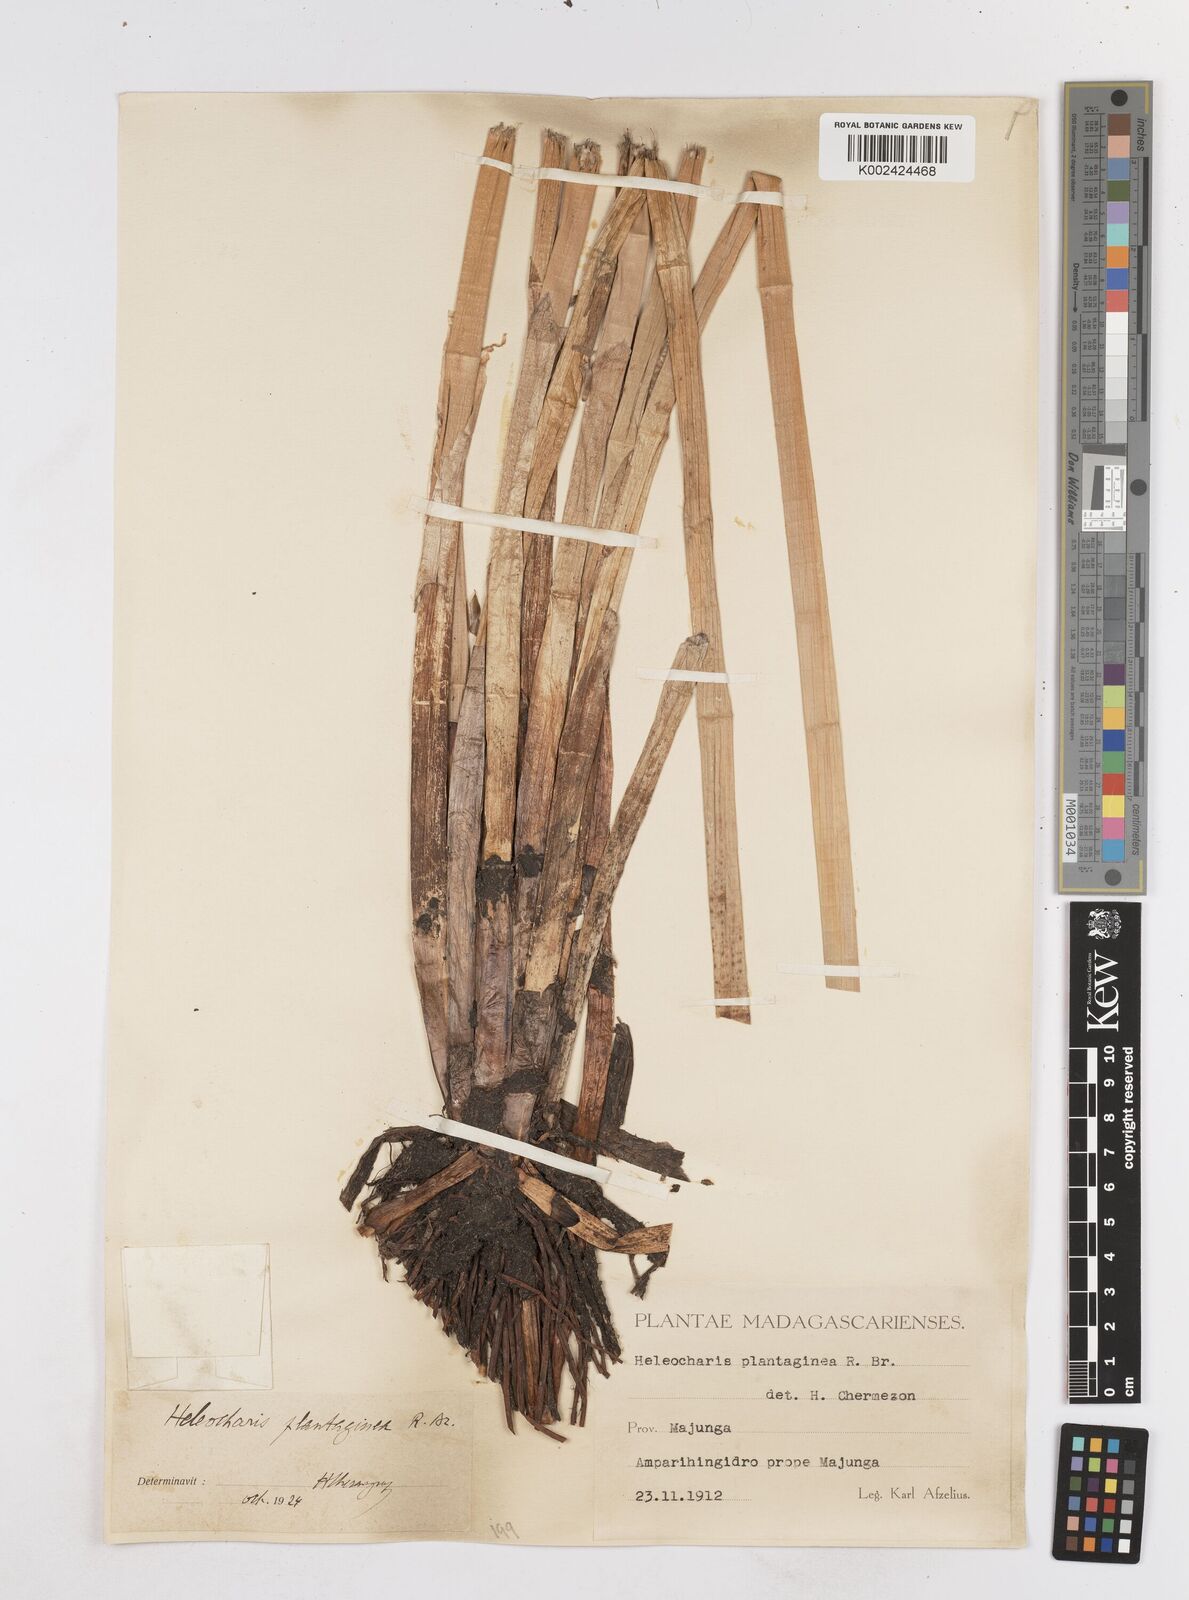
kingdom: Plantae
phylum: Tracheophyta
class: Liliopsida
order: Poales
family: Cyperaceae
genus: Eleocharis
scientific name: Eleocharis dulcis
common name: Chinese water chestnut
